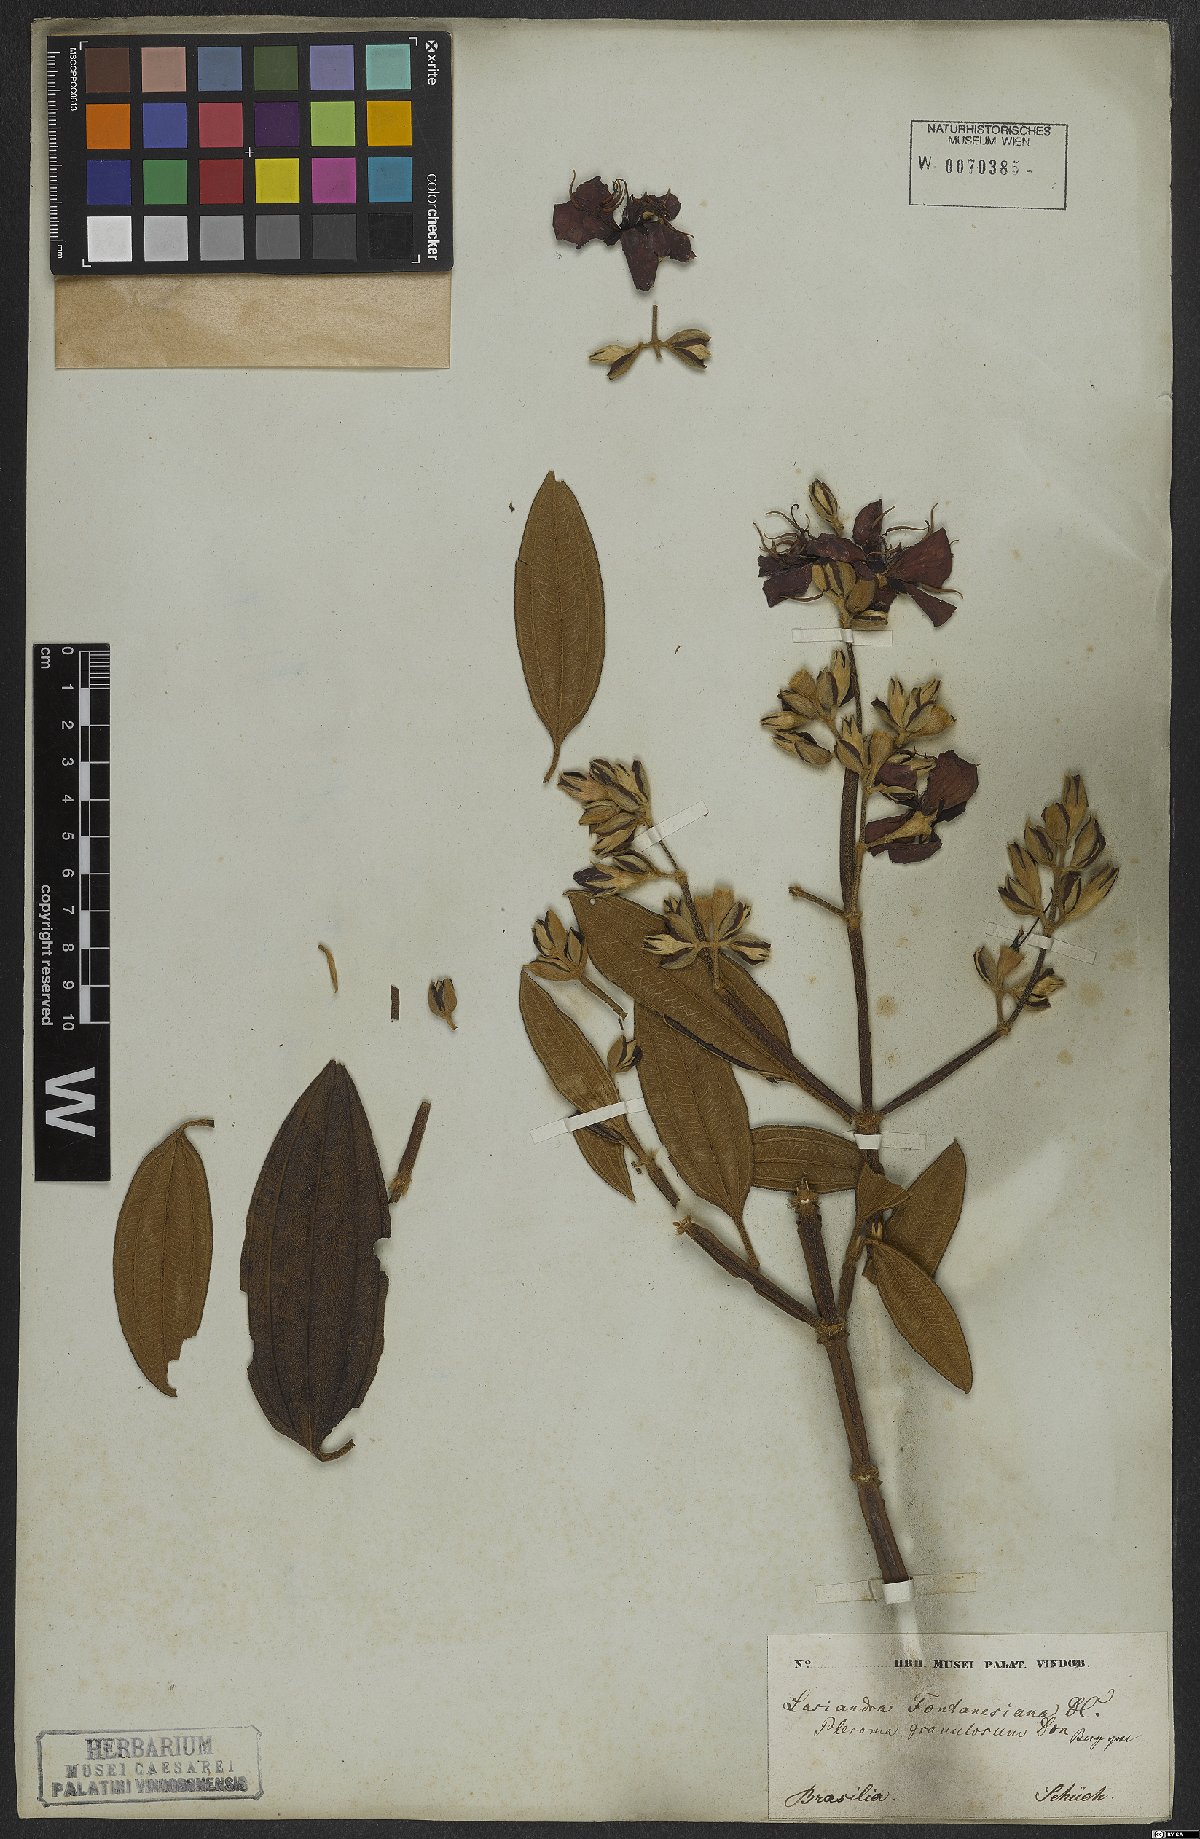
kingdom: Plantae
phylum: Tracheophyta
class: Magnoliopsida
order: Myrtales
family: Melastomataceae
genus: Pleroma
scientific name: Pleroma granulosum
